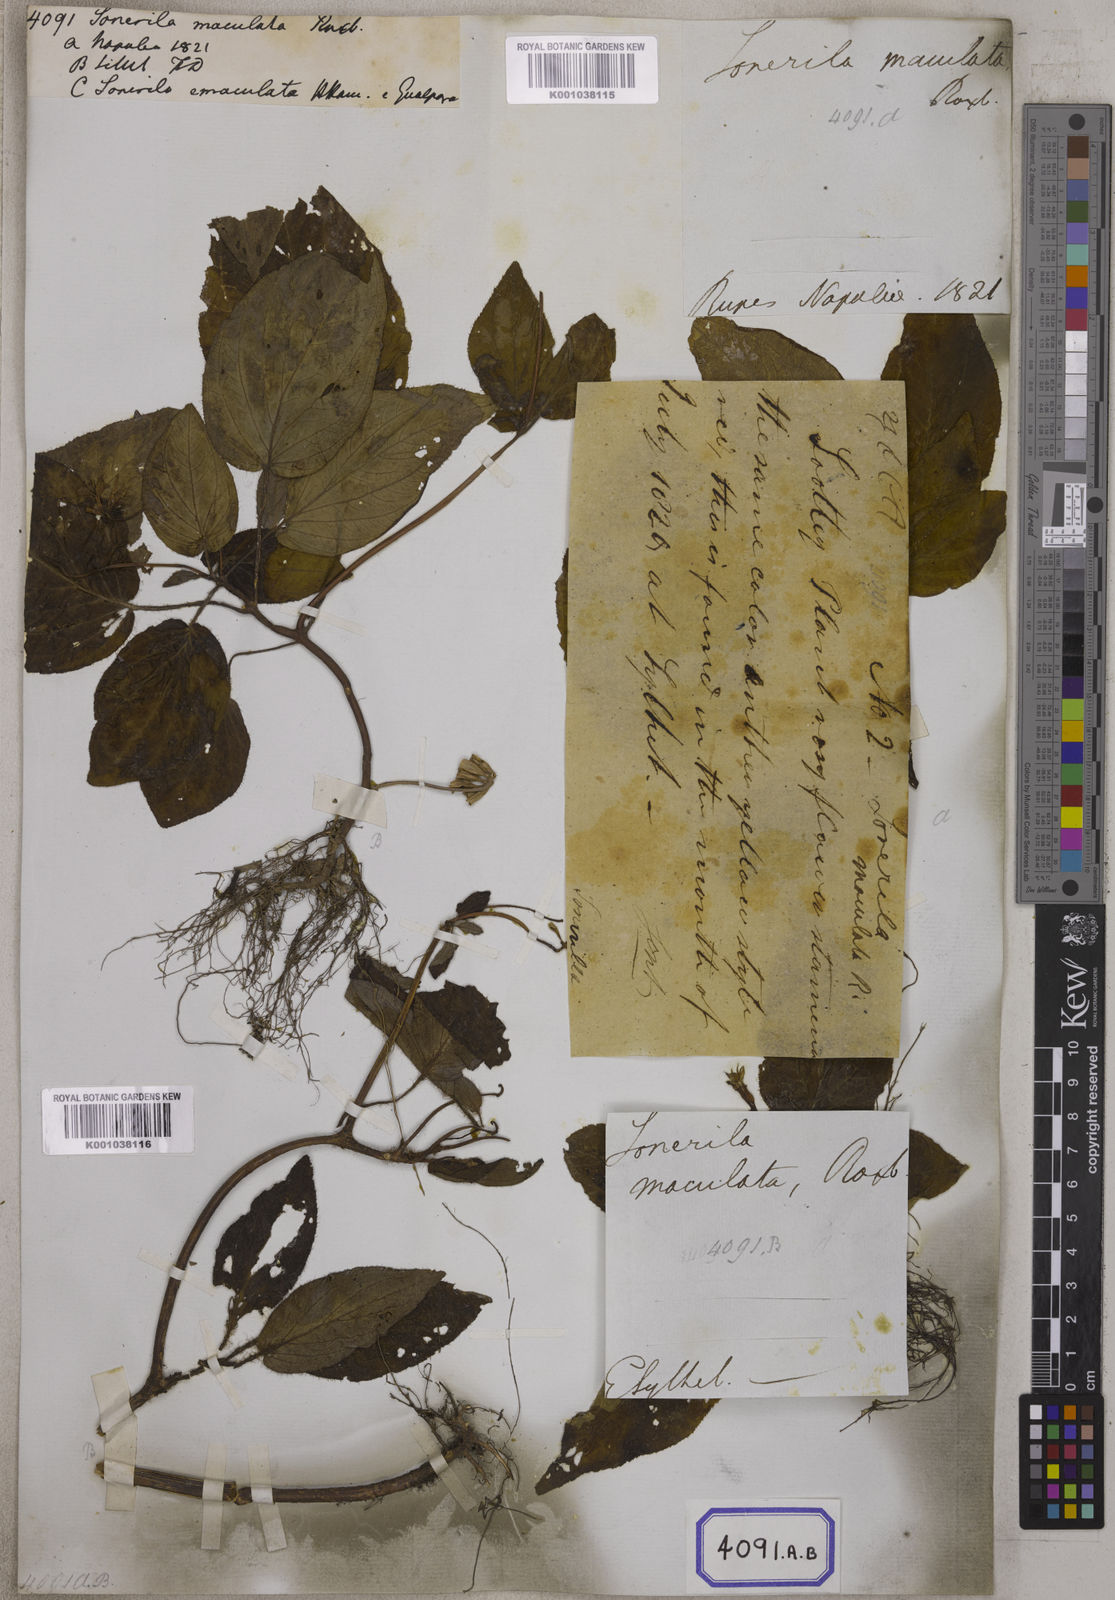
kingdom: Plantae
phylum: Tracheophyta
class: Magnoliopsida
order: Myrtales
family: Melastomataceae
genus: Sonerila
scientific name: Sonerila maculata
